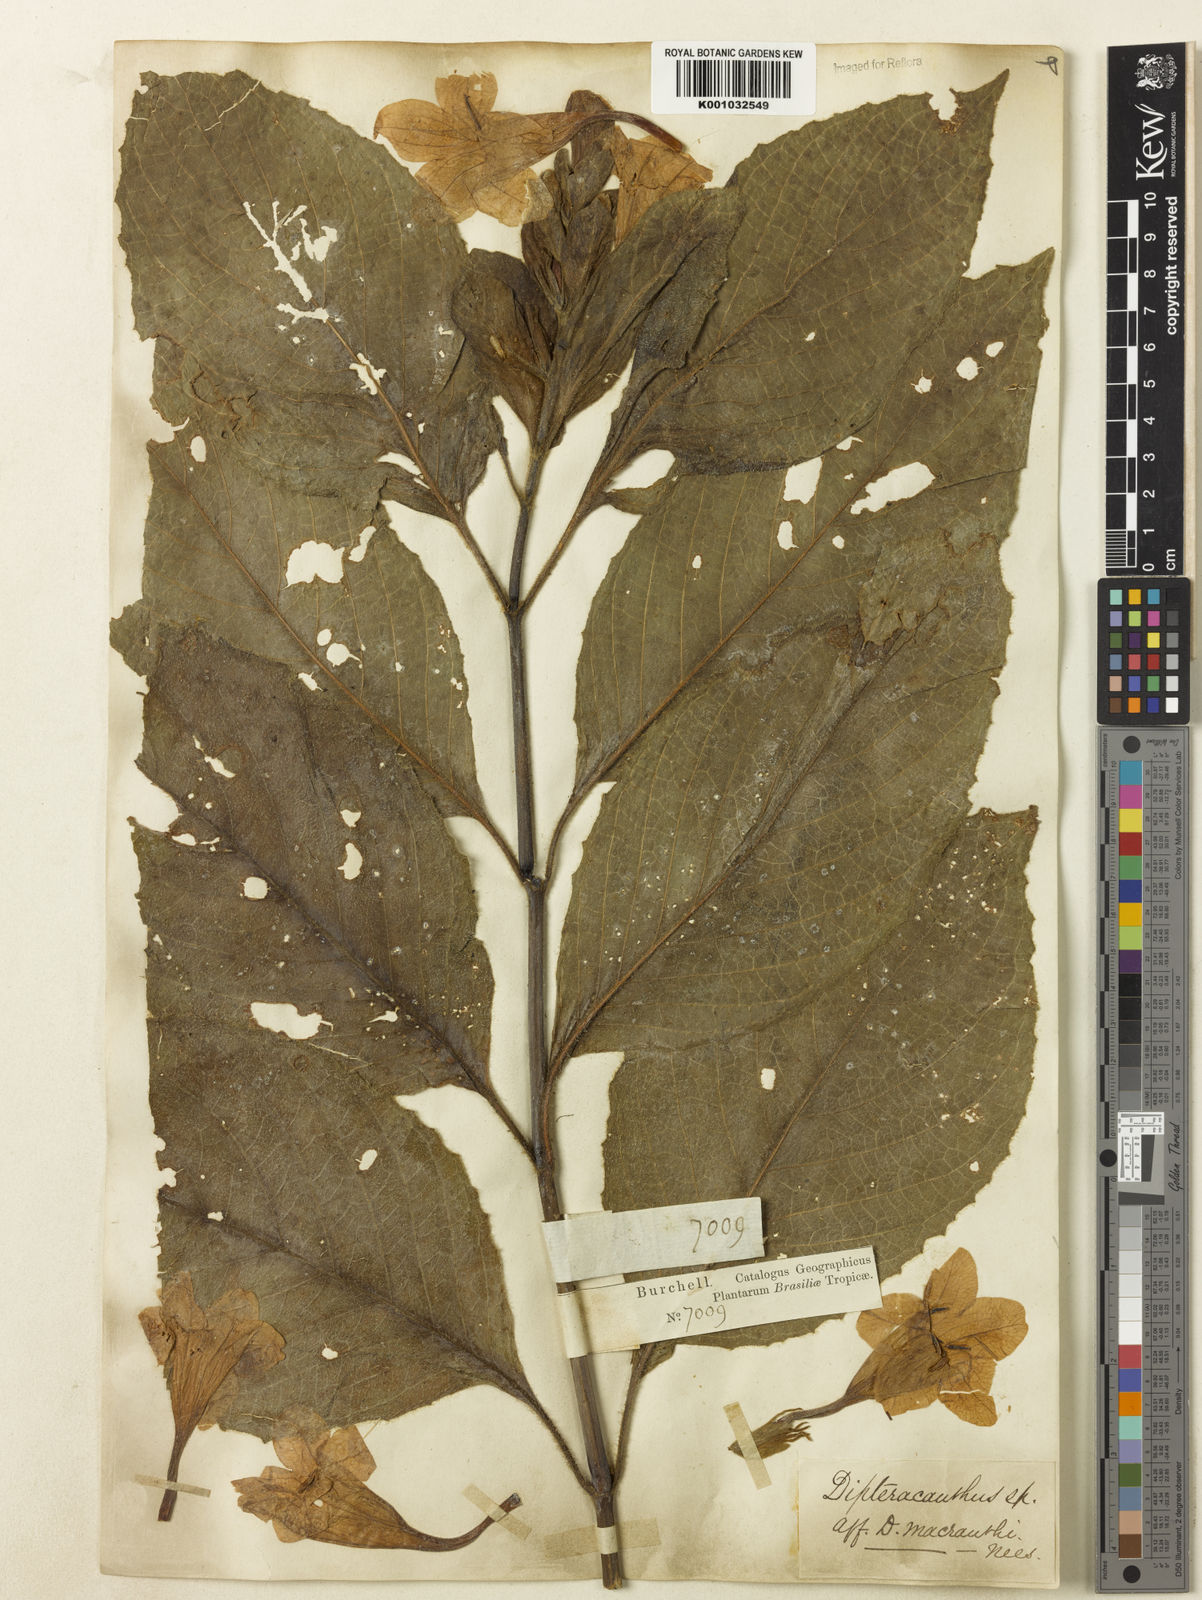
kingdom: Plantae
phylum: Tracheophyta
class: Magnoliopsida
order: Lamiales
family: Acanthaceae
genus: Ruellia
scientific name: Ruellia
